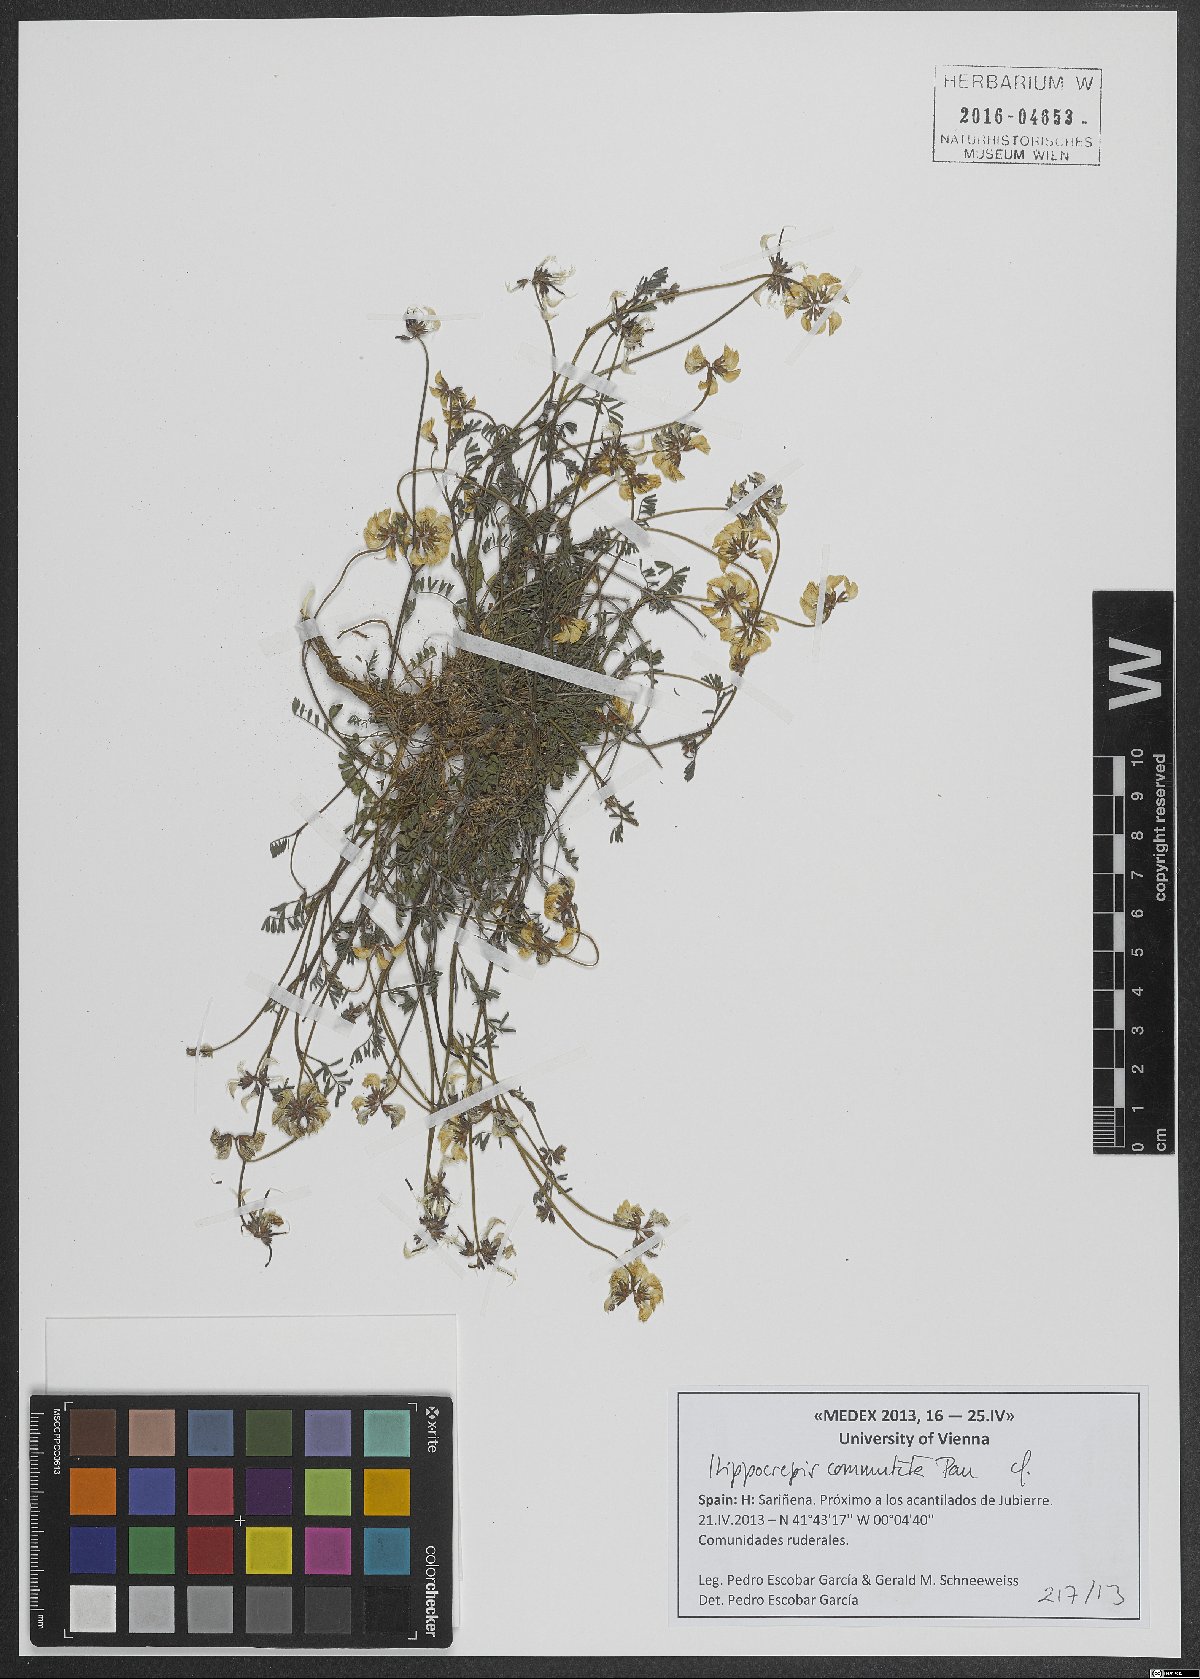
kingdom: Plantae
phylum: Tracheophyta
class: Magnoliopsida
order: Fabales
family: Fabaceae
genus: Hippocrepis
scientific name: Hippocrepis scabra
